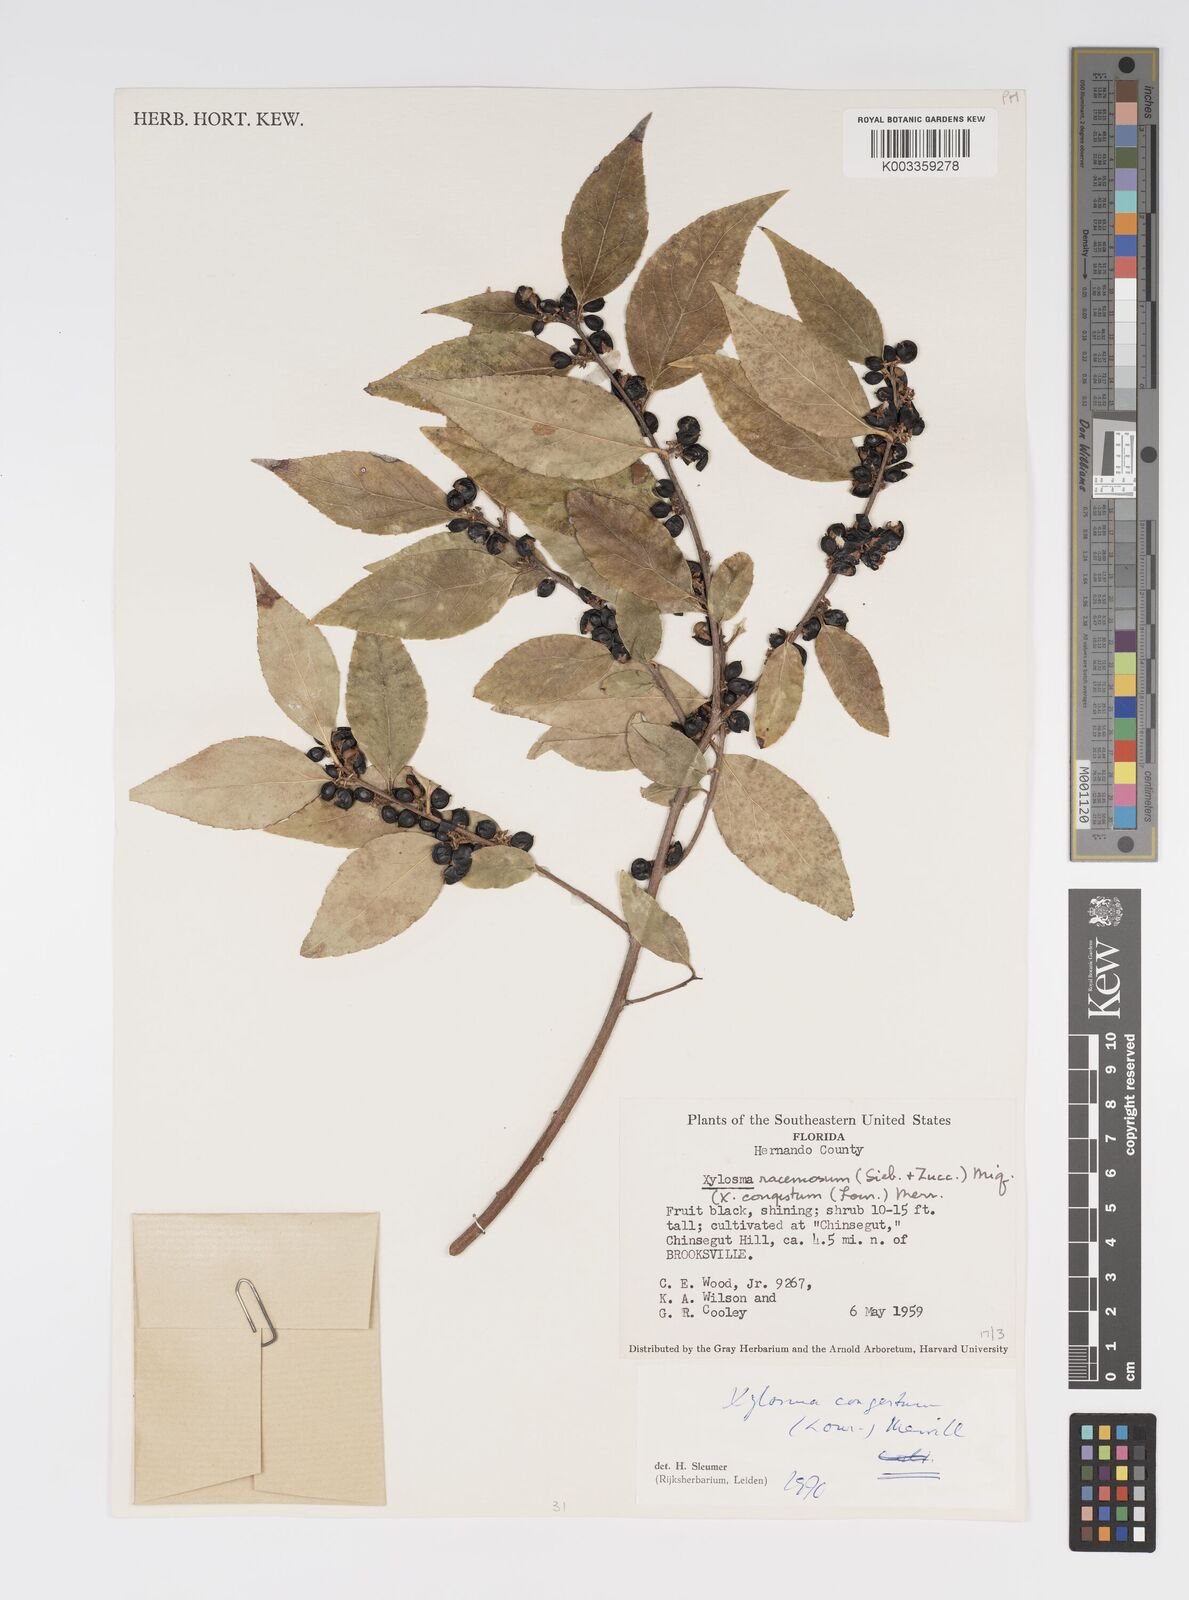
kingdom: Plantae
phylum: Tracheophyta
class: Magnoliopsida
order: Malpighiales
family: Salicaceae
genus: Xylosma
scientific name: Xylosma racemosum
